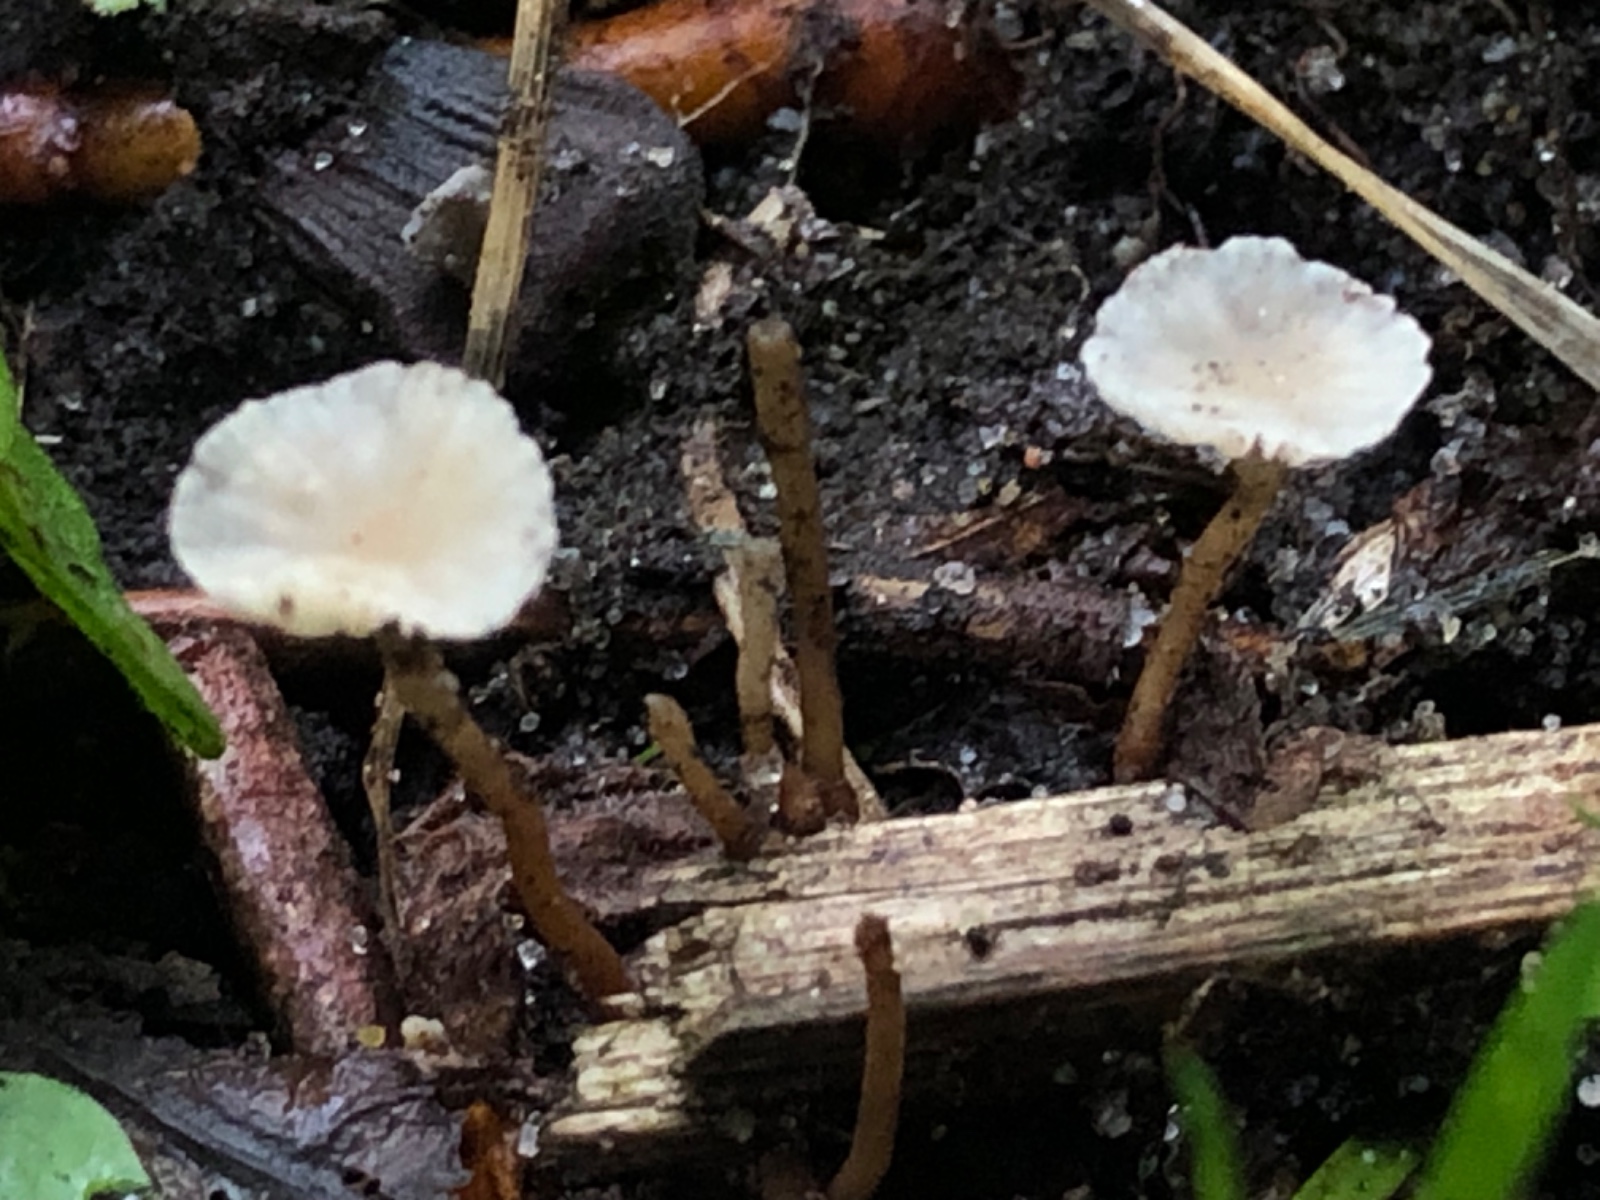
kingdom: Fungi
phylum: Basidiomycota
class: Agaricomycetes
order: Agaricales
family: Omphalotaceae
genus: Collybiopsis
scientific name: Collybiopsis vaillantii
